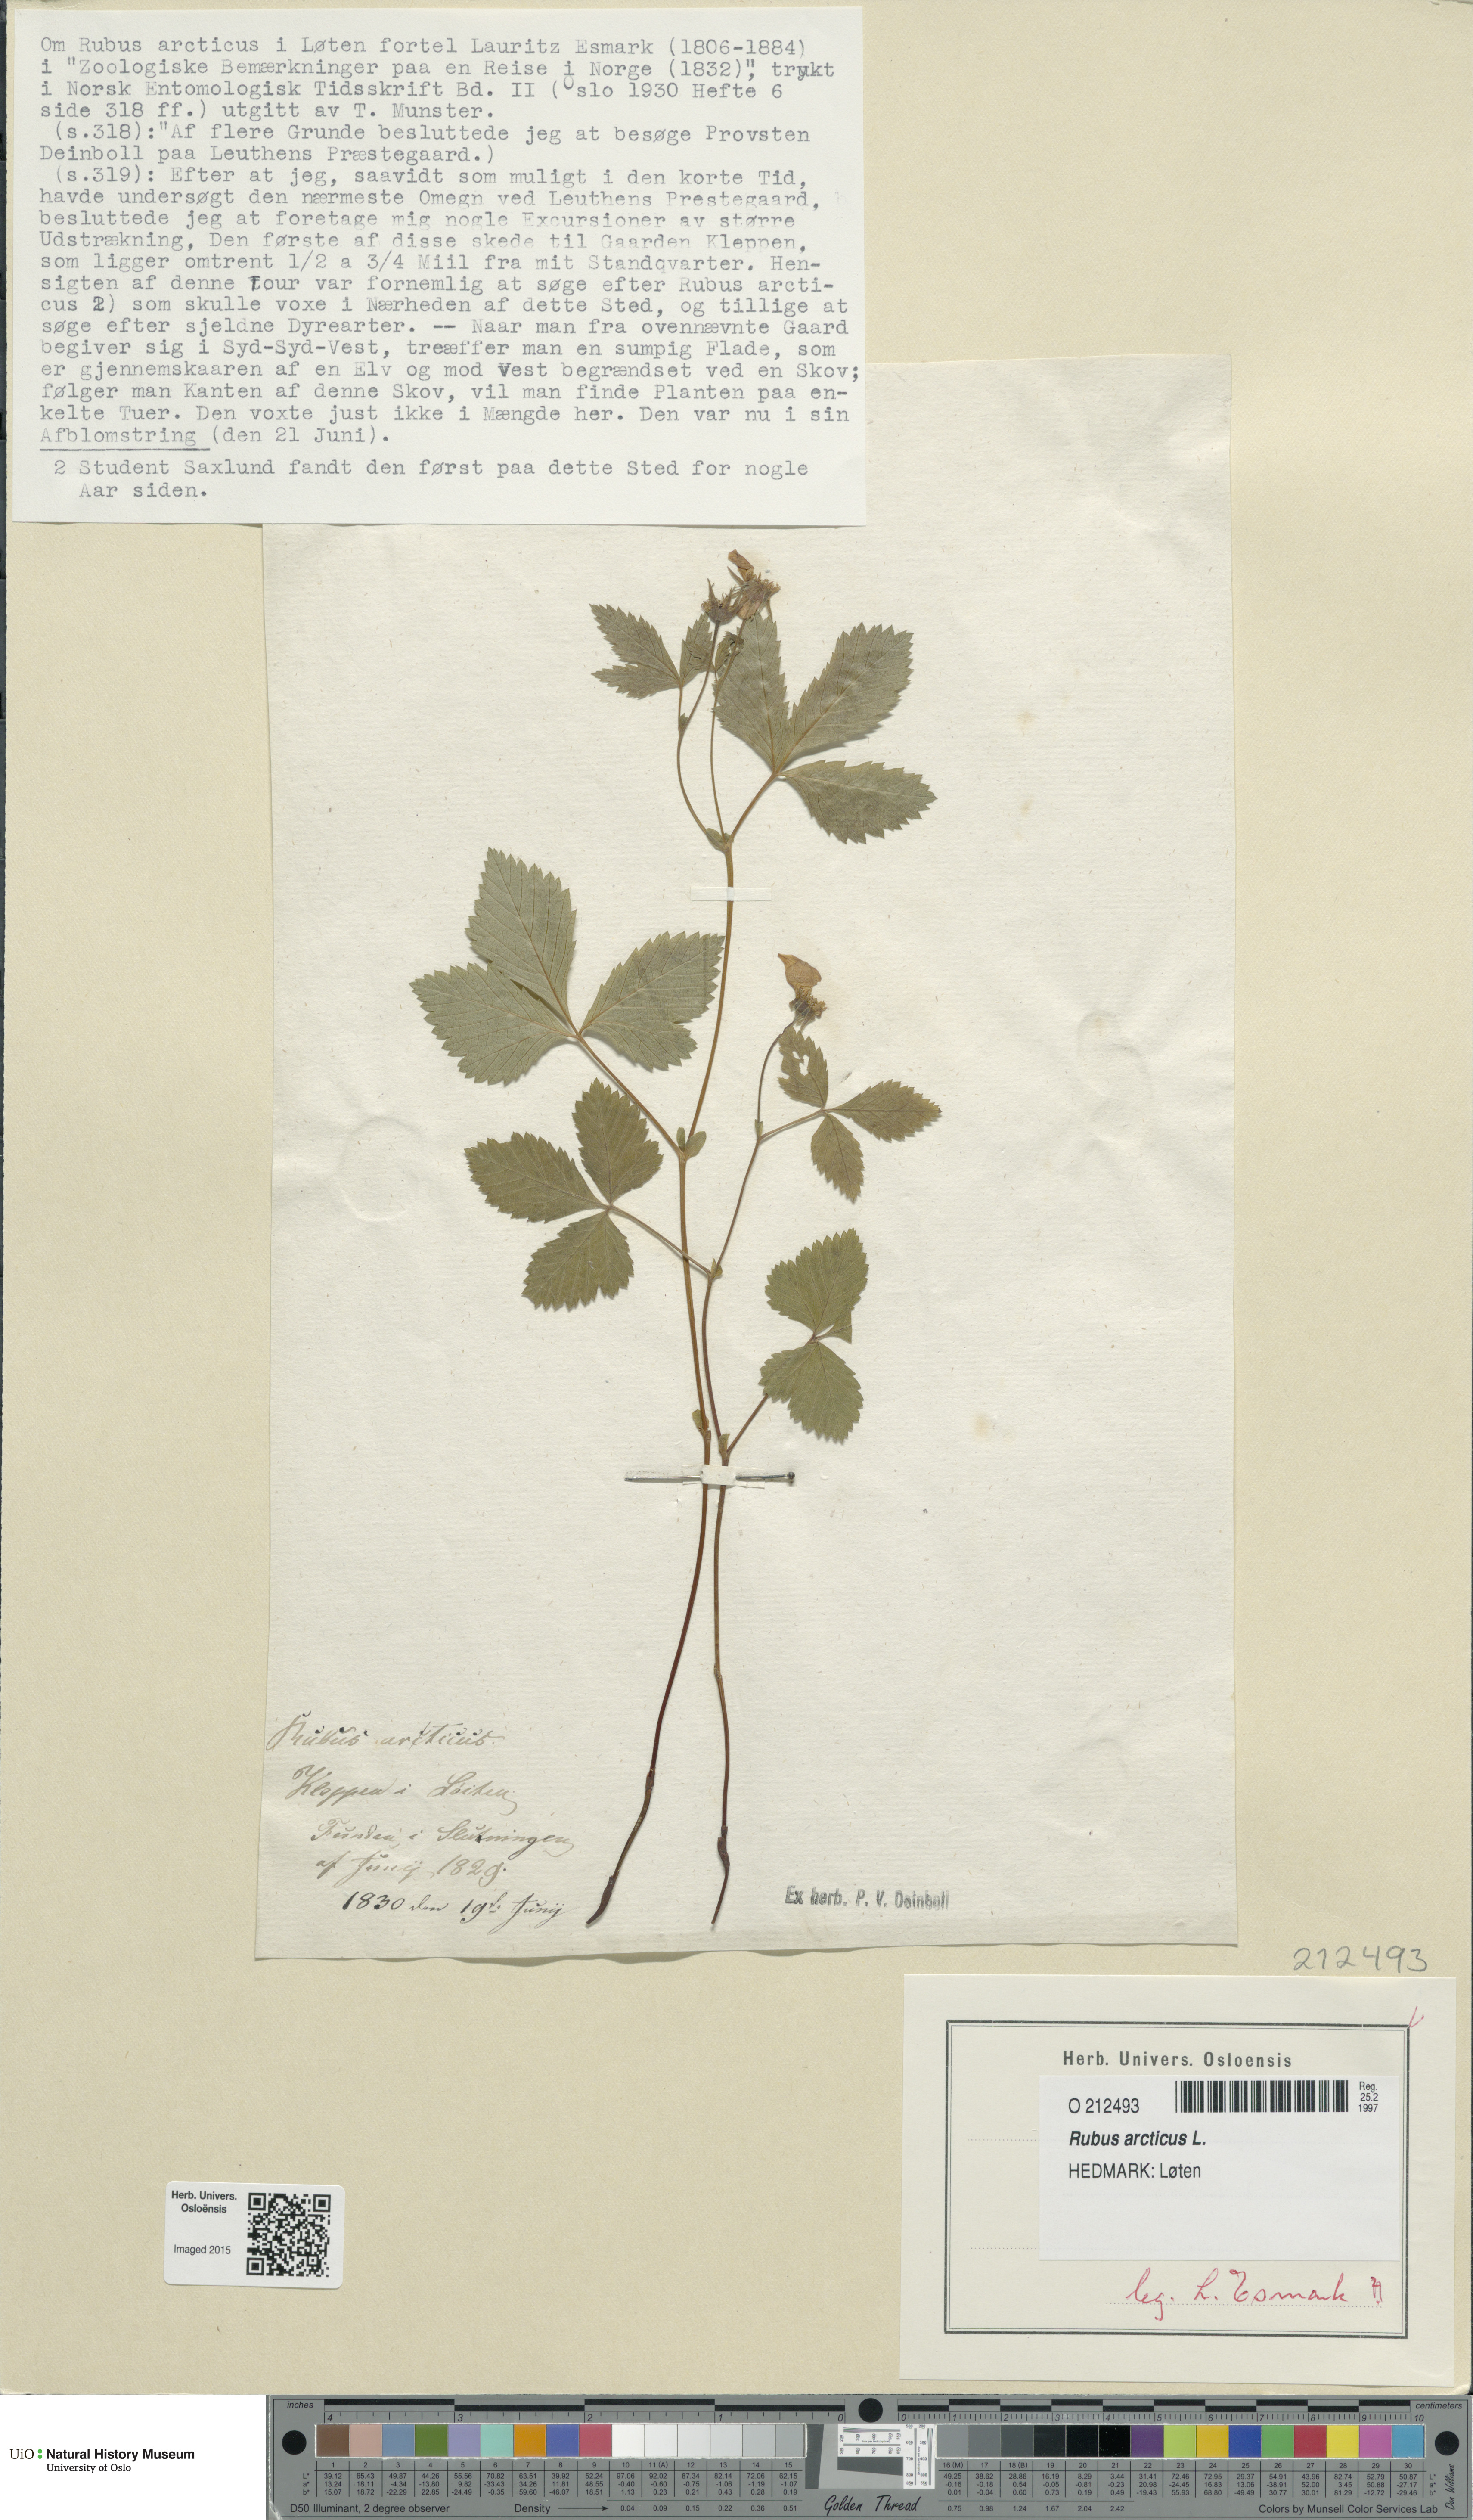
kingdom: Plantae
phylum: Tracheophyta
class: Magnoliopsida
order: Rosales
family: Rosaceae
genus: Rubus
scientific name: Rubus arcticus
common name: Arctic bramble
